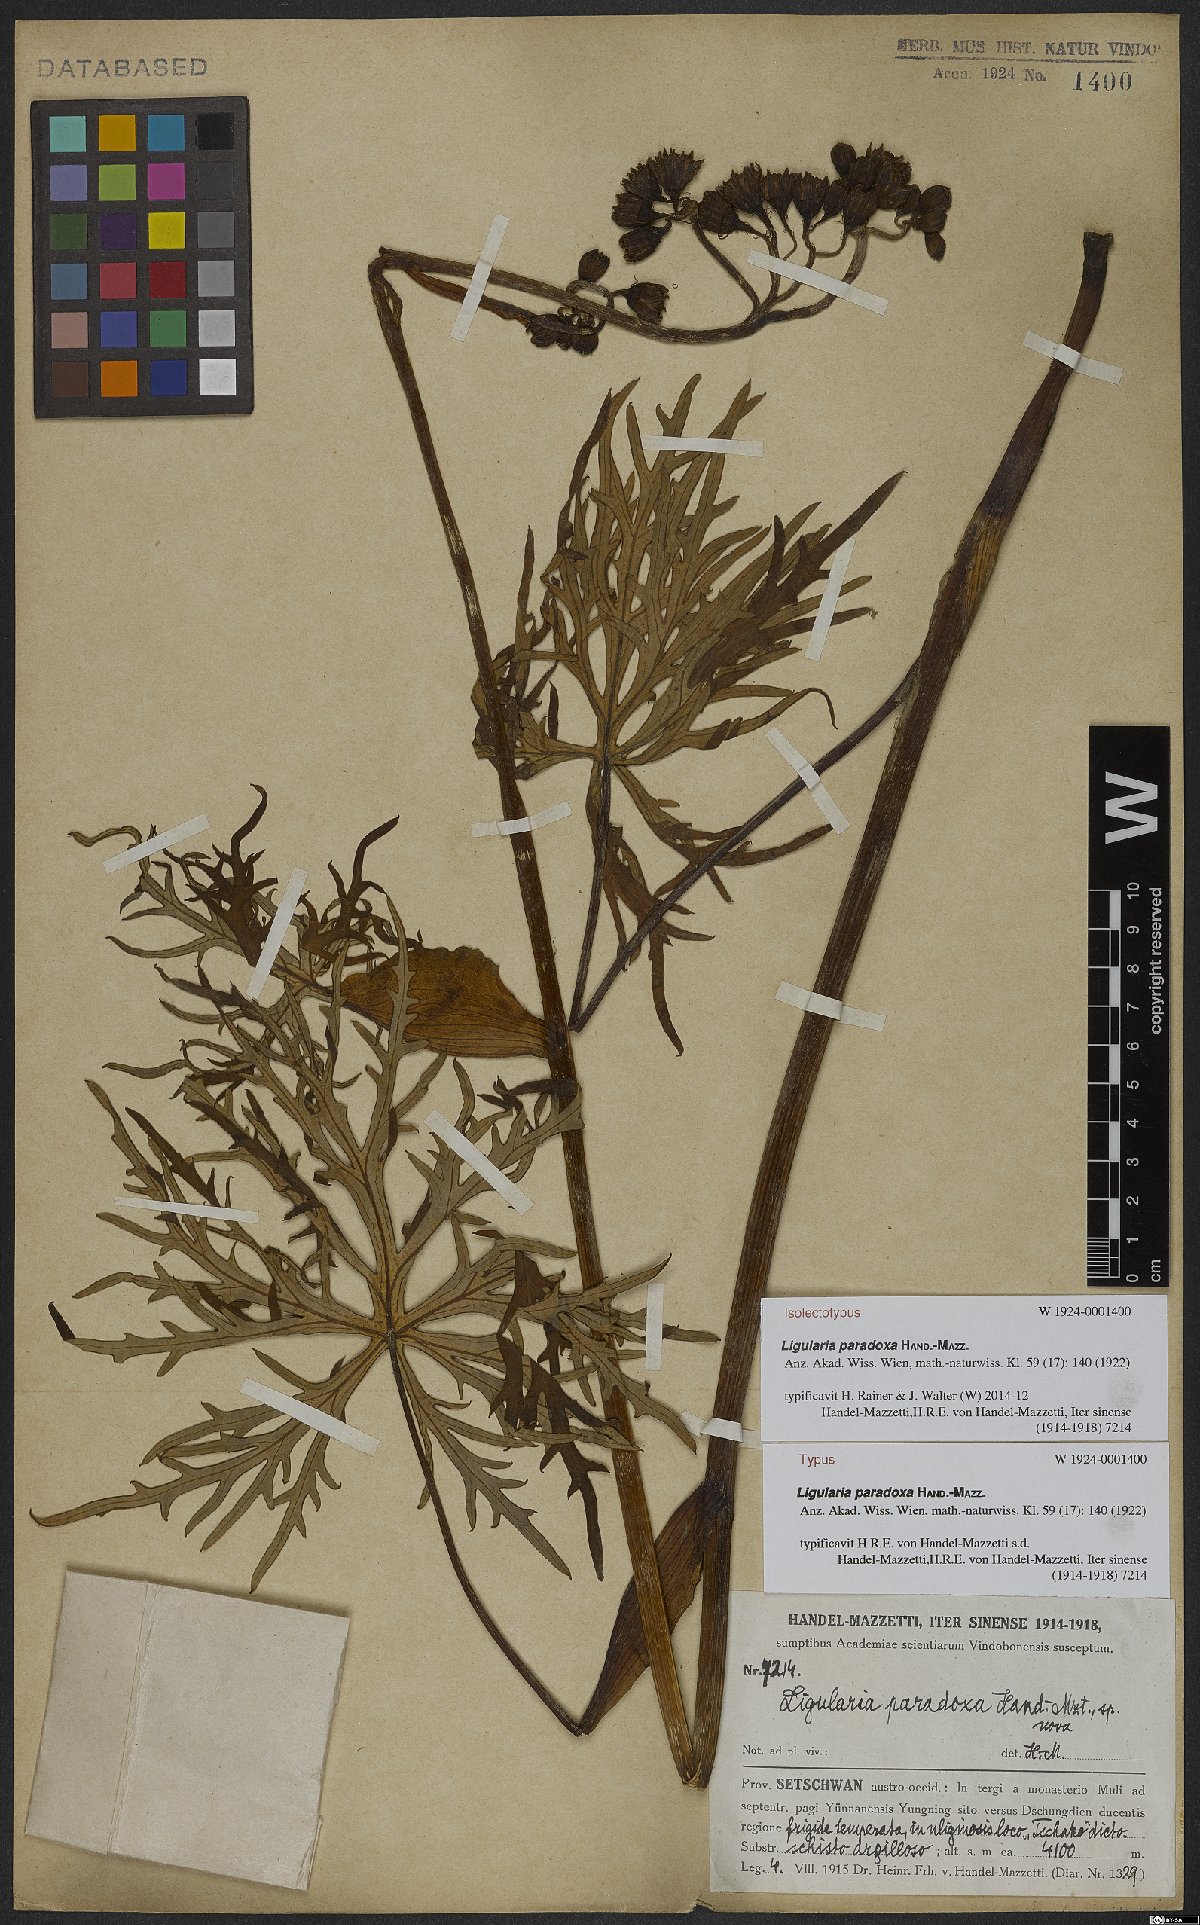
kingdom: Plantae
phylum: Tracheophyta
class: Magnoliopsida
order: Asterales
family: Asteraceae
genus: Ligularia
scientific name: Ligularia paradoxa
